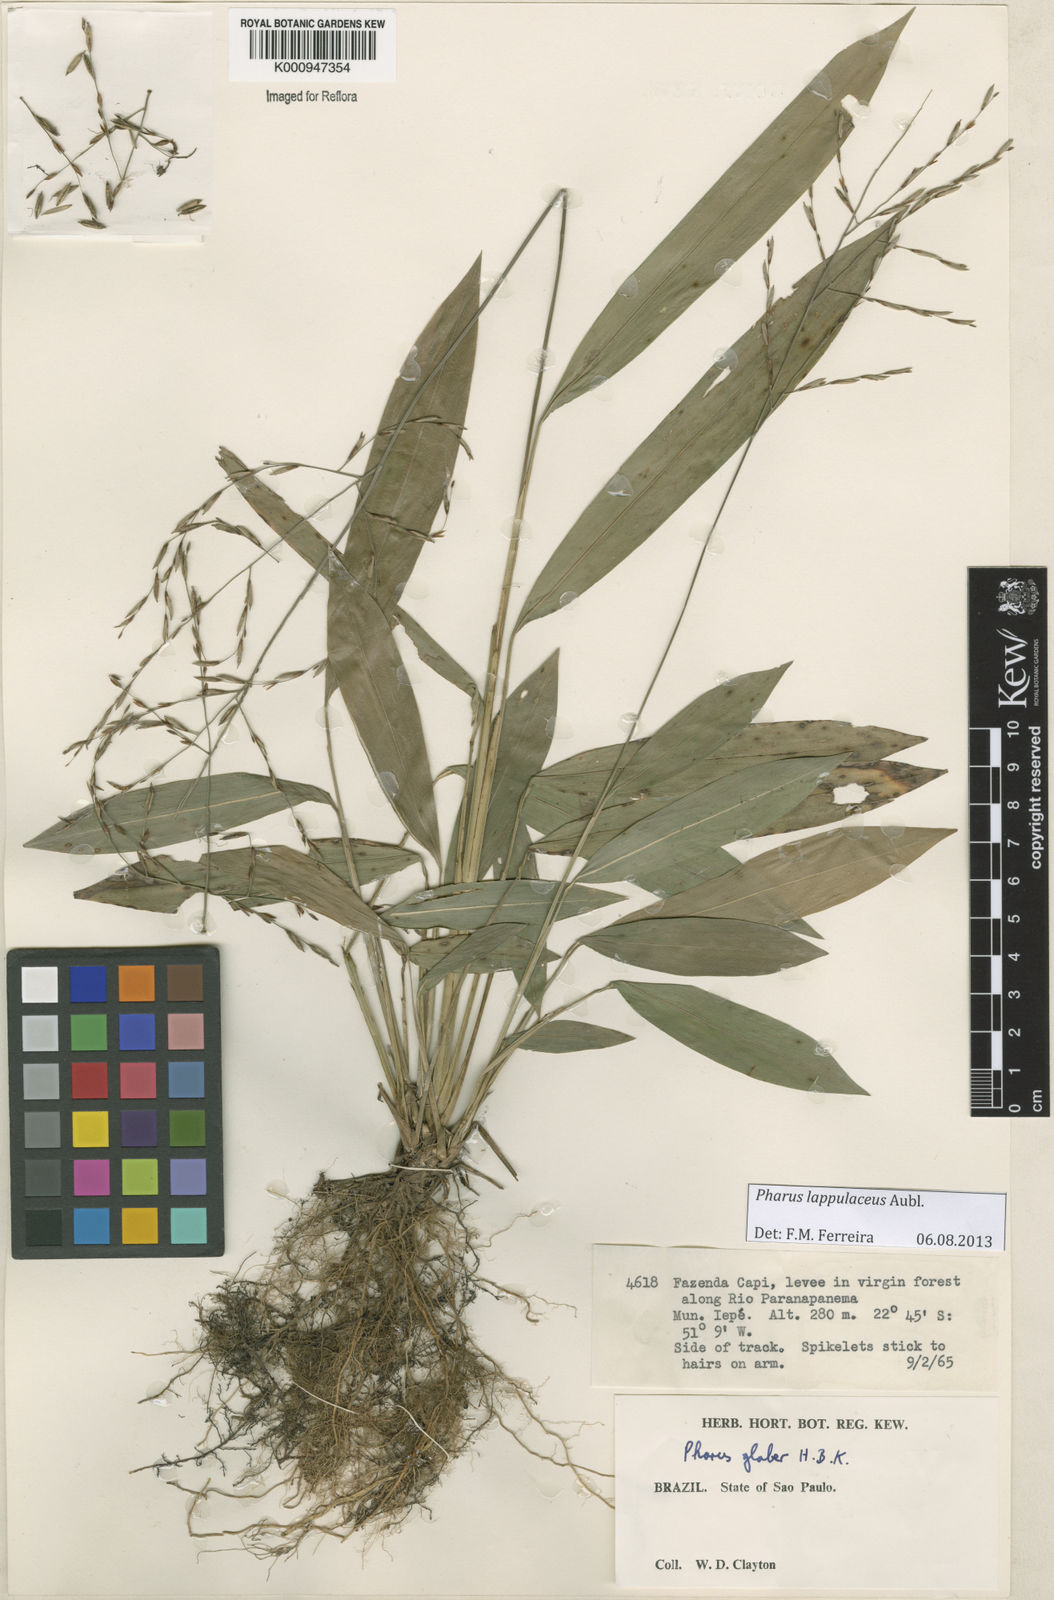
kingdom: Plantae
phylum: Tracheophyta
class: Liliopsida
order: Poales
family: Poaceae
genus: Pharus
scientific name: Pharus lappulaceus
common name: Creeping leafstalk grass
